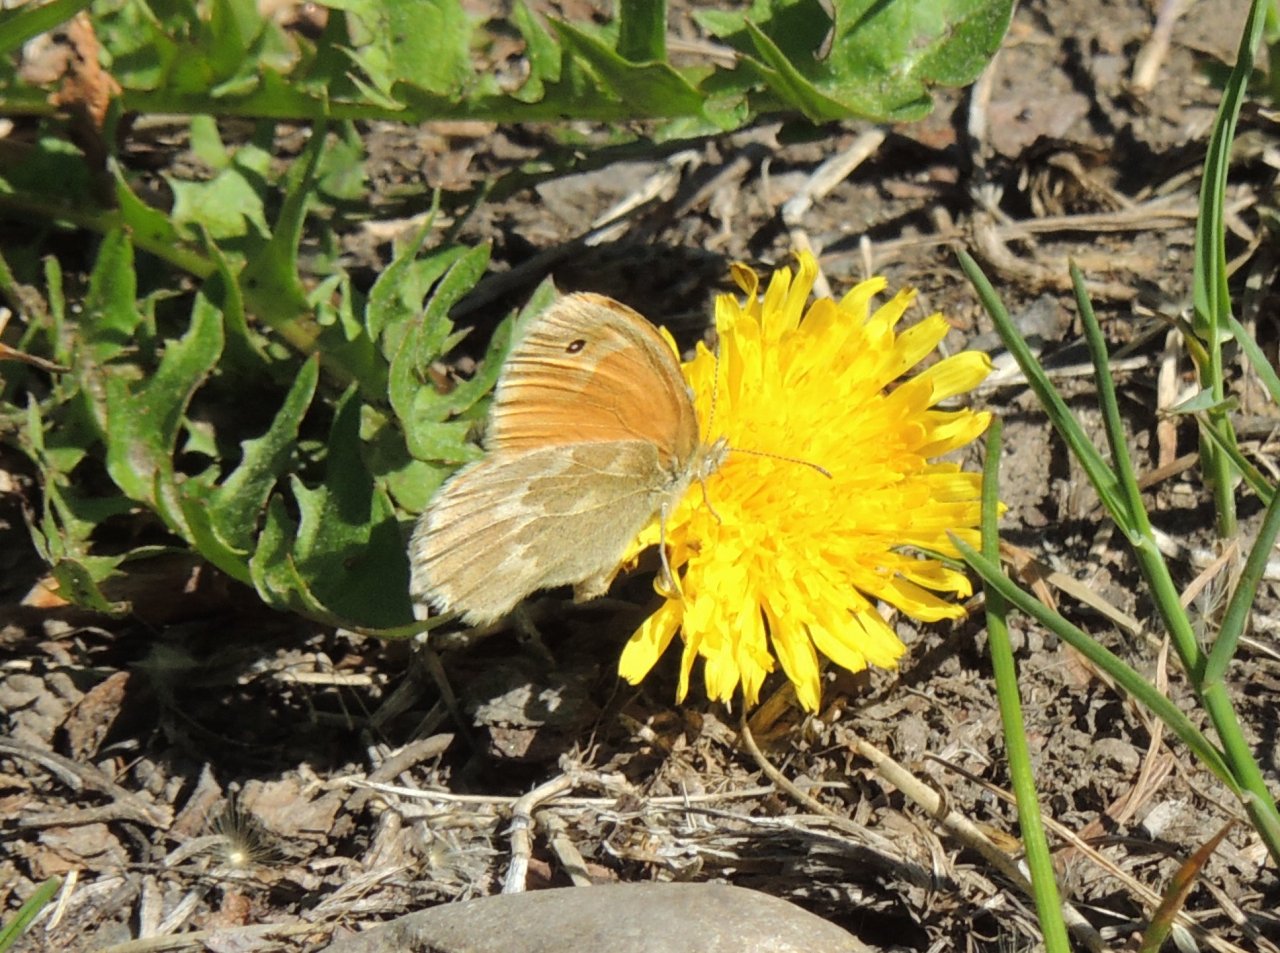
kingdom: Animalia
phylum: Arthropoda
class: Insecta
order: Lepidoptera
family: Nymphalidae
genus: Coenonympha
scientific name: Coenonympha tullia
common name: Large Heath
